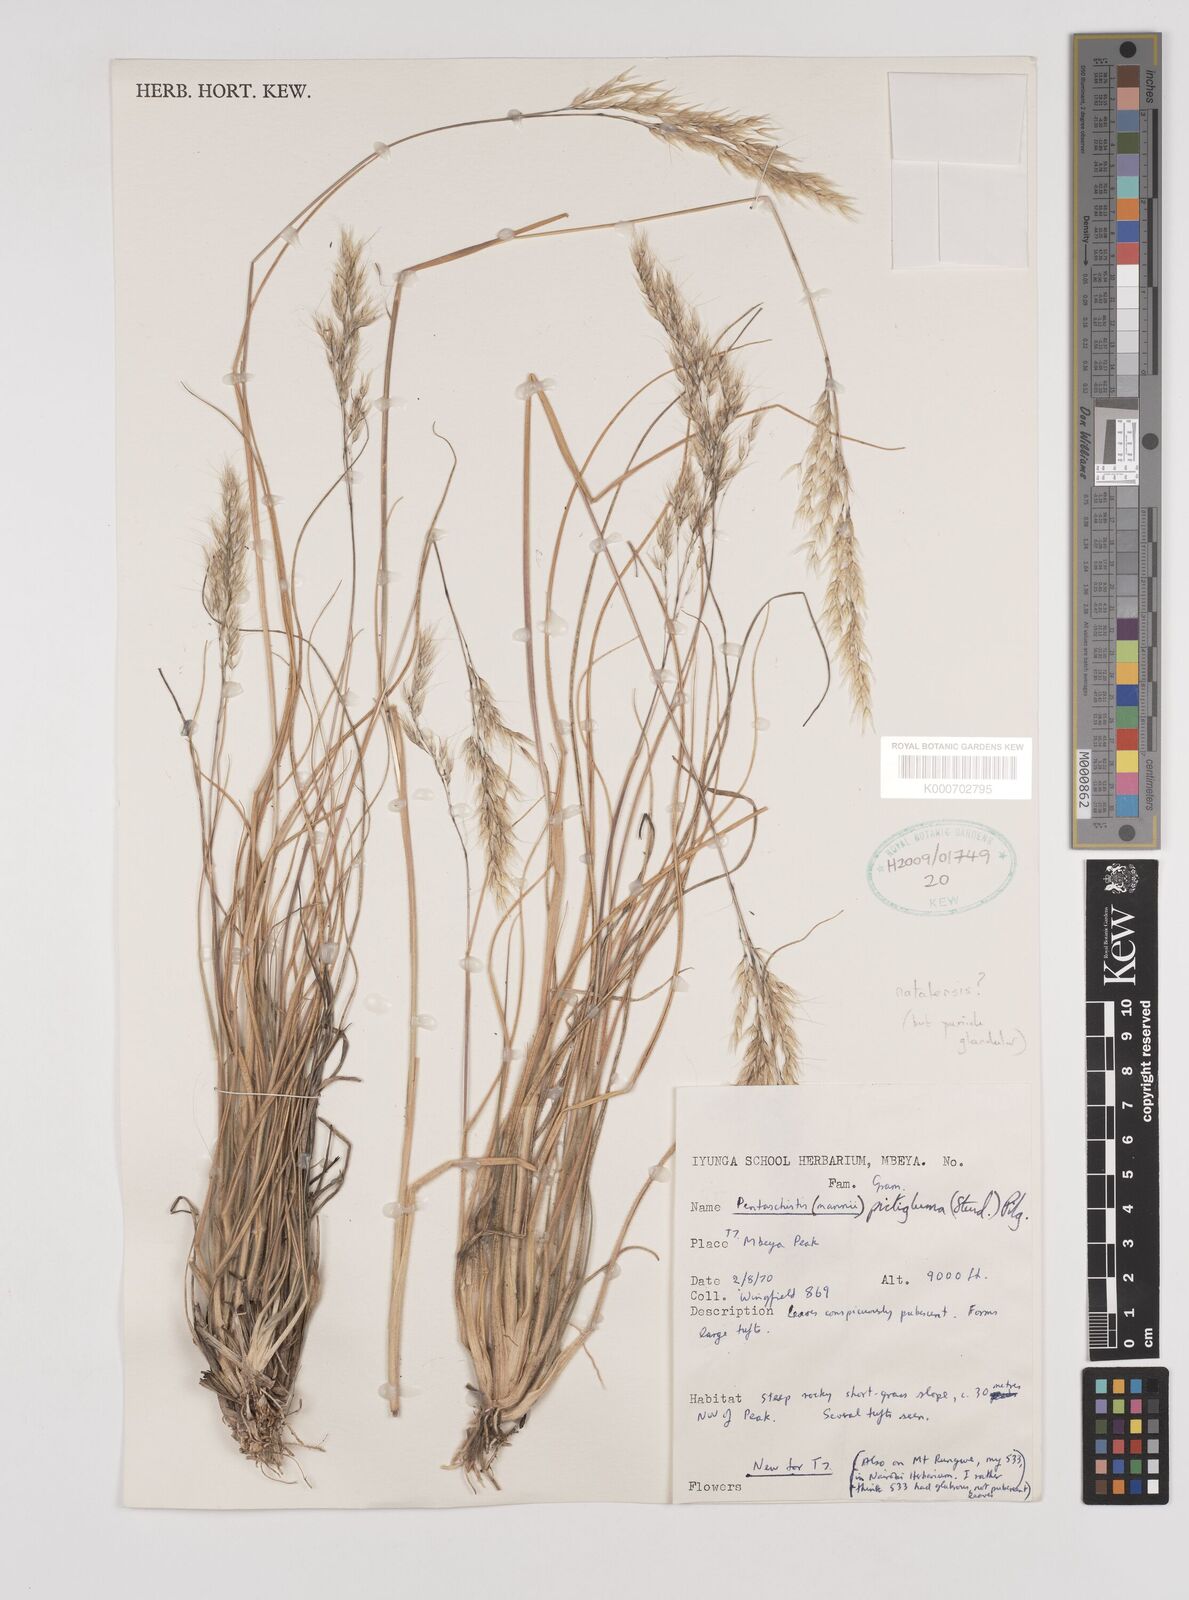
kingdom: Plantae
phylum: Tracheophyta
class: Liliopsida
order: Poales
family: Poaceae
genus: Pentameris
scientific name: Pentameris natalensis
